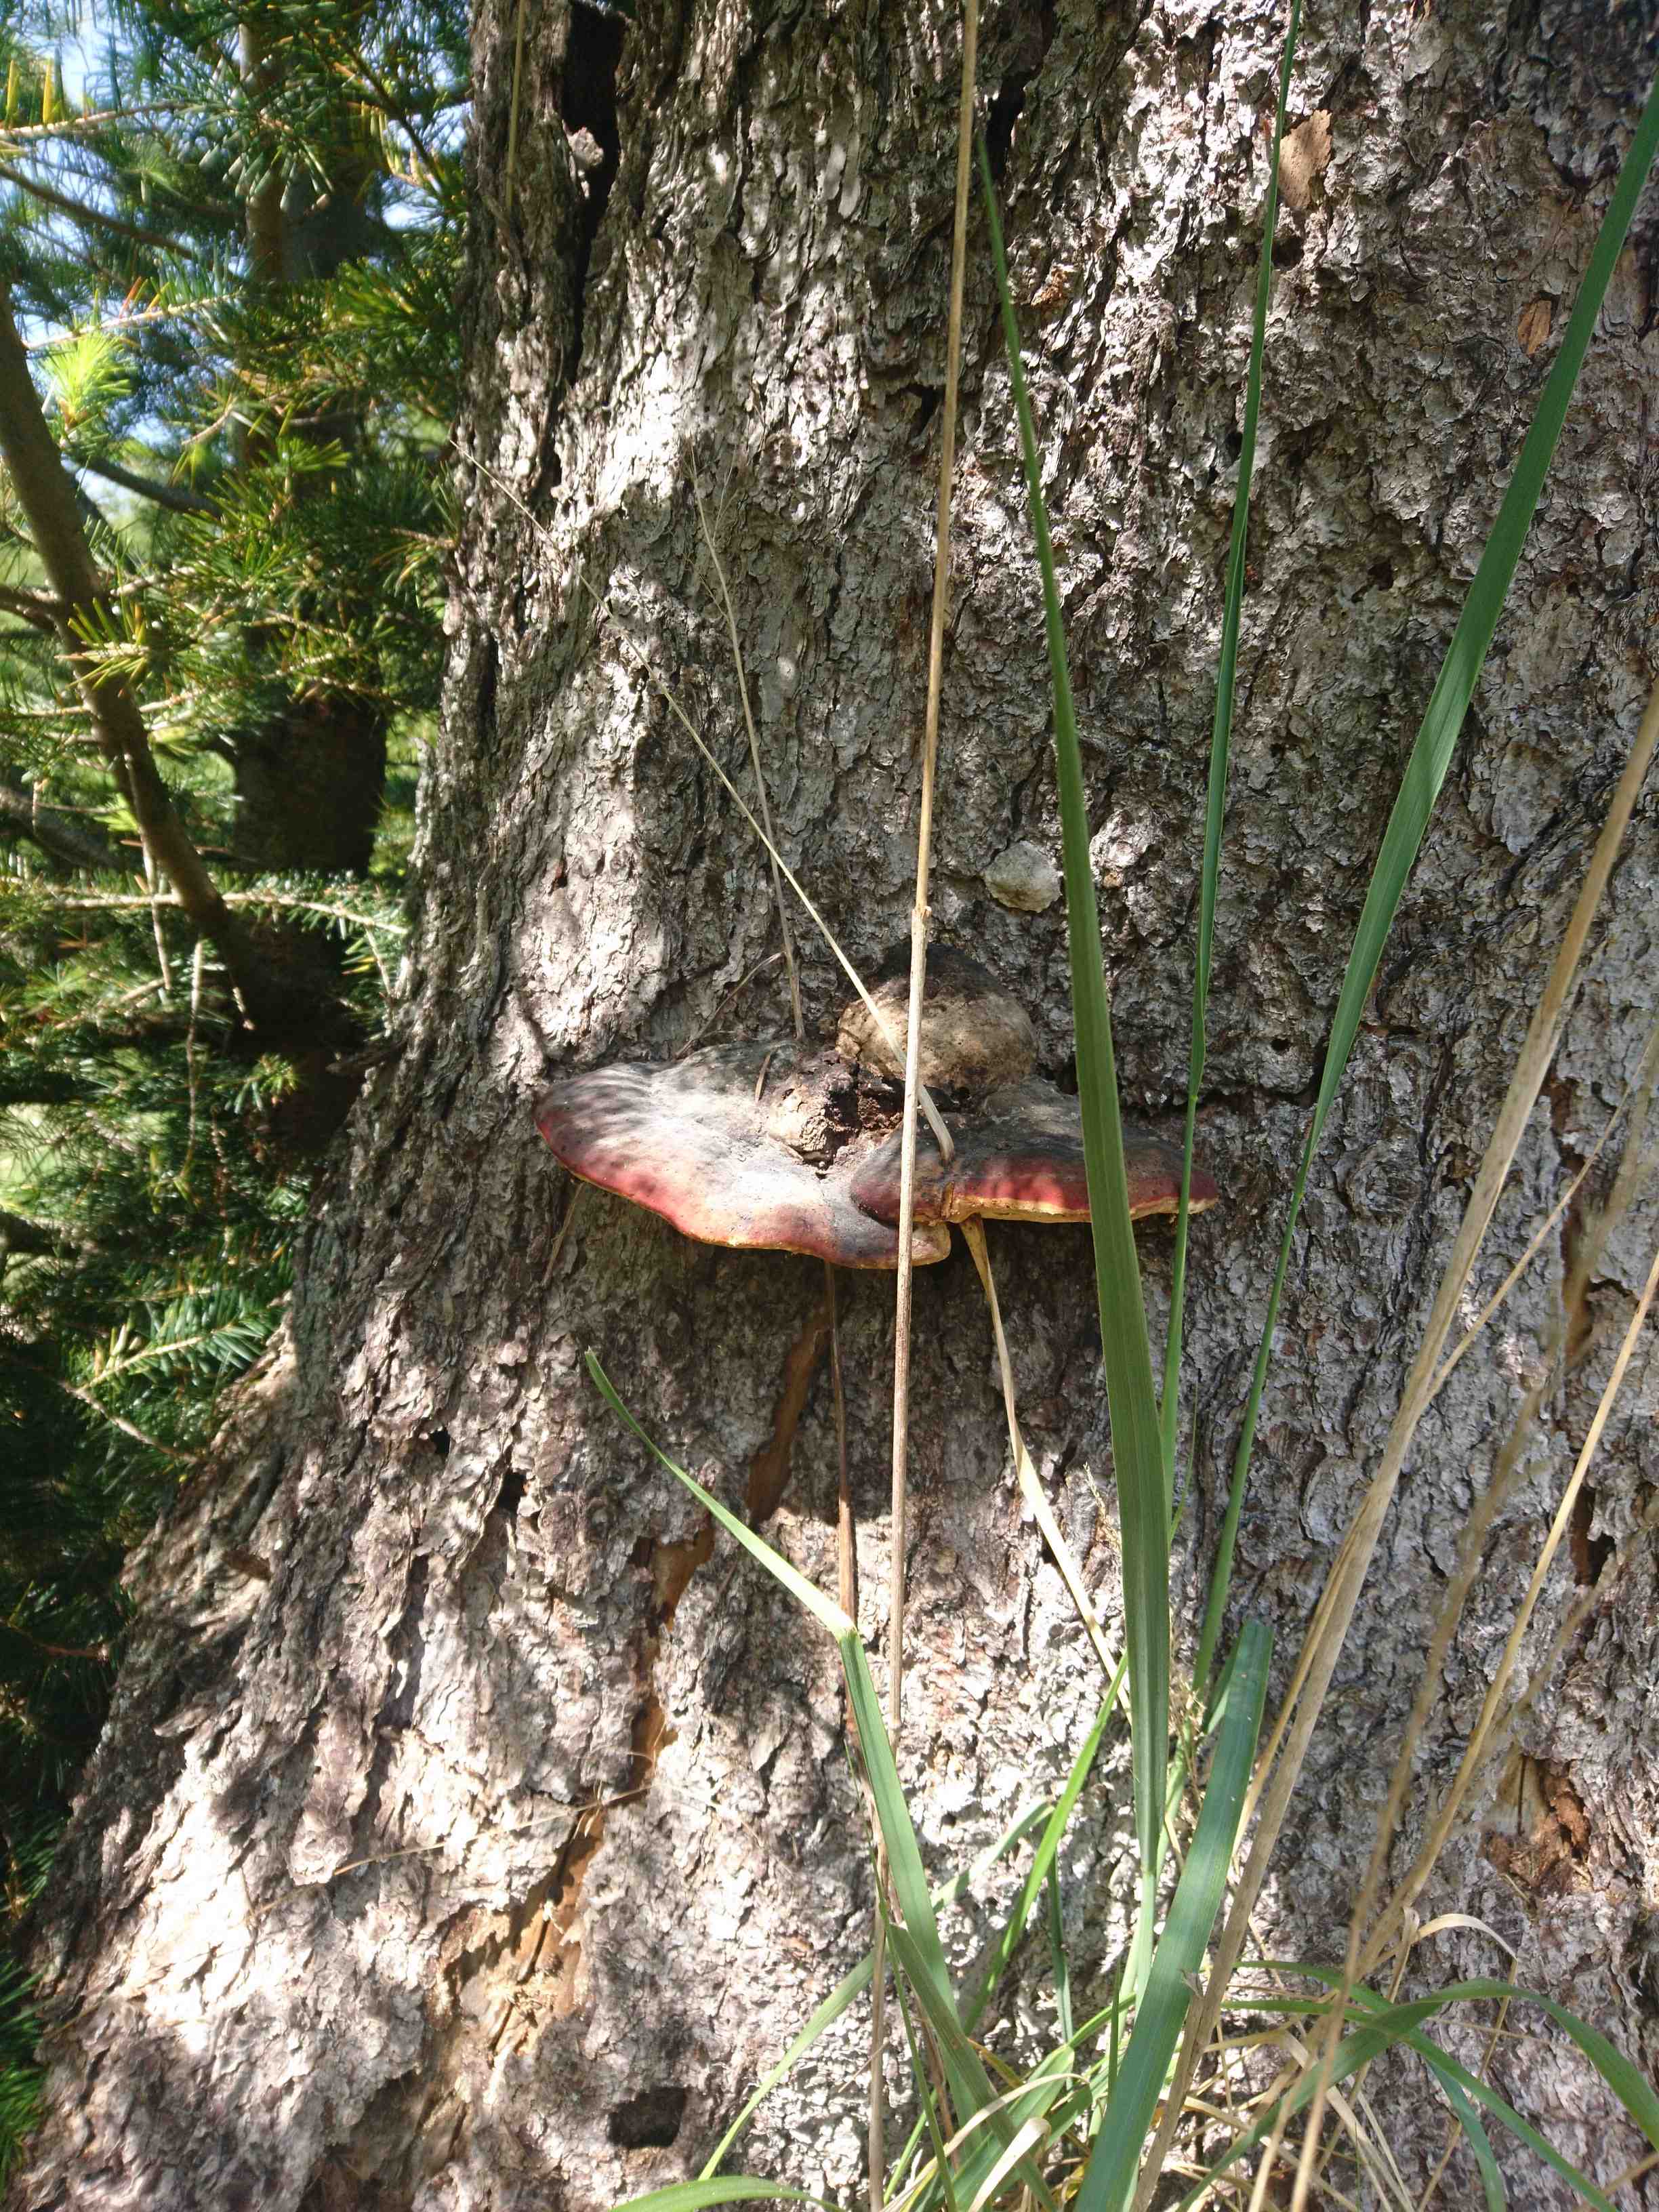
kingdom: Fungi
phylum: Basidiomycota
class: Agaricomycetes
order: Polyporales
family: Fomitopsidaceae
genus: Fomitopsis
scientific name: Fomitopsis pinicola
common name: randbæltet hovporesvamp
